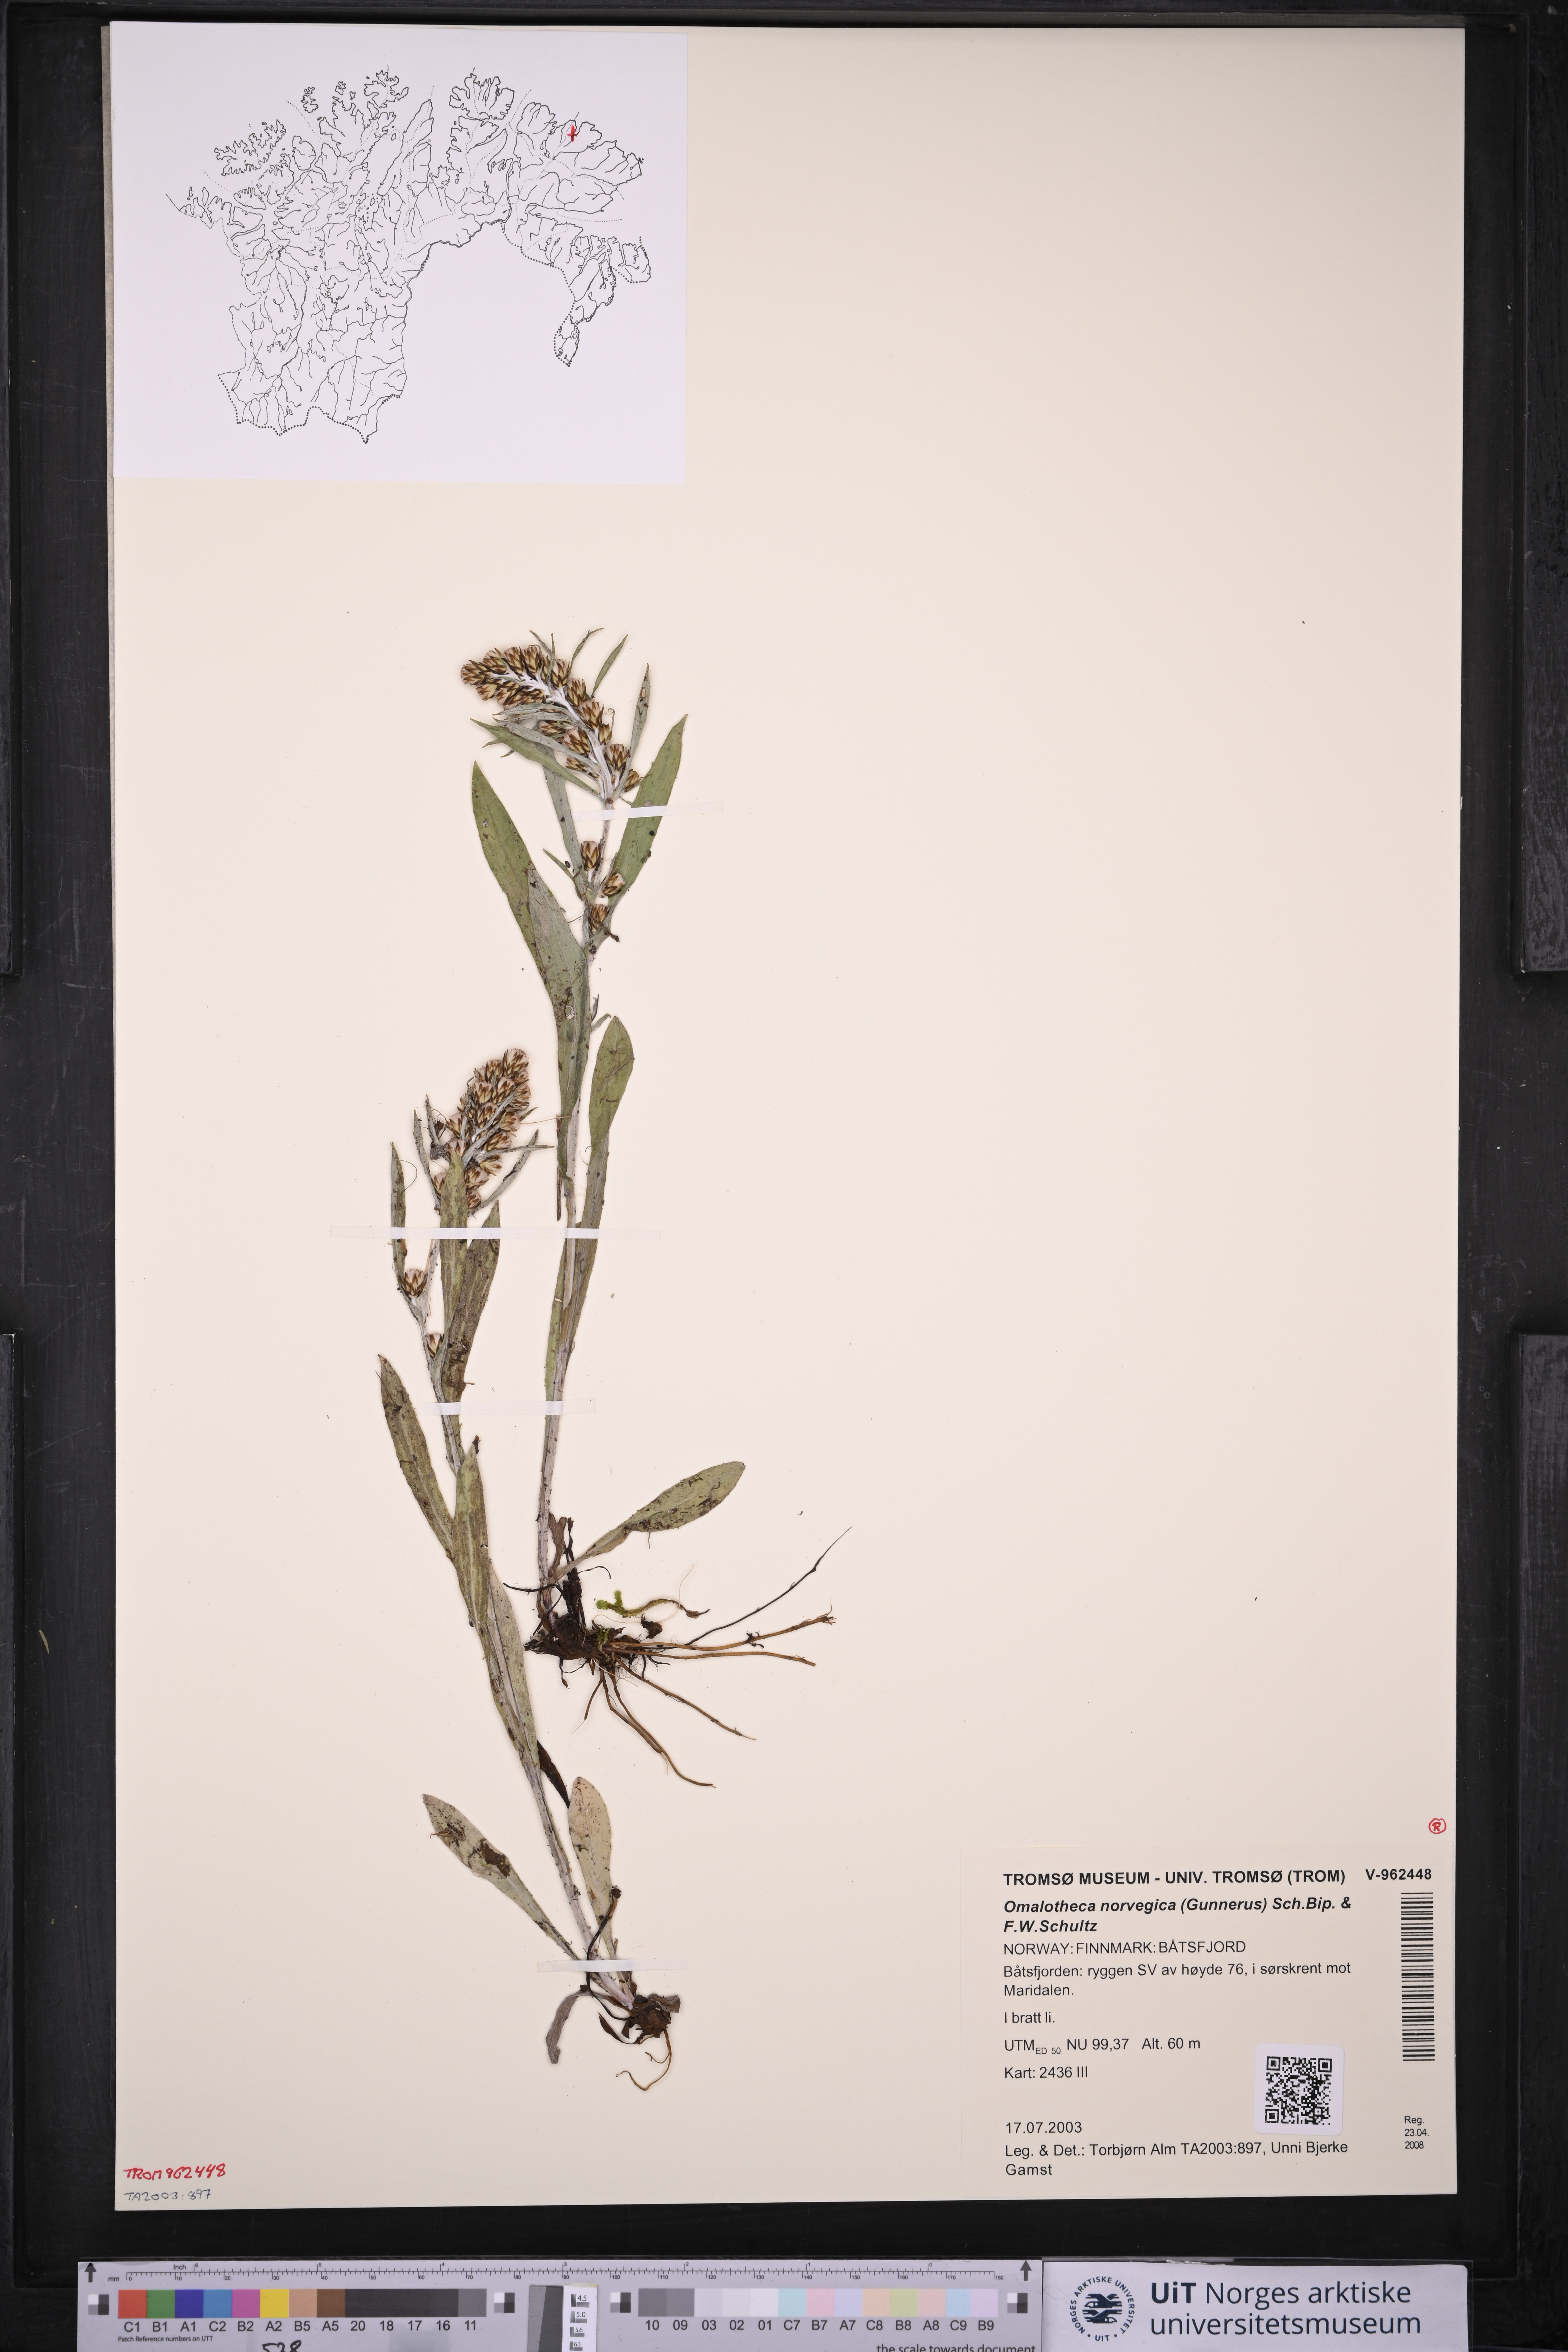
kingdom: Plantae
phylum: Tracheophyta
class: Magnoliopsida
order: Asterales
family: Asteraceae
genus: Omalotheca
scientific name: Omalotheca norvegica
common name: Norwegian arctic-cudweed
